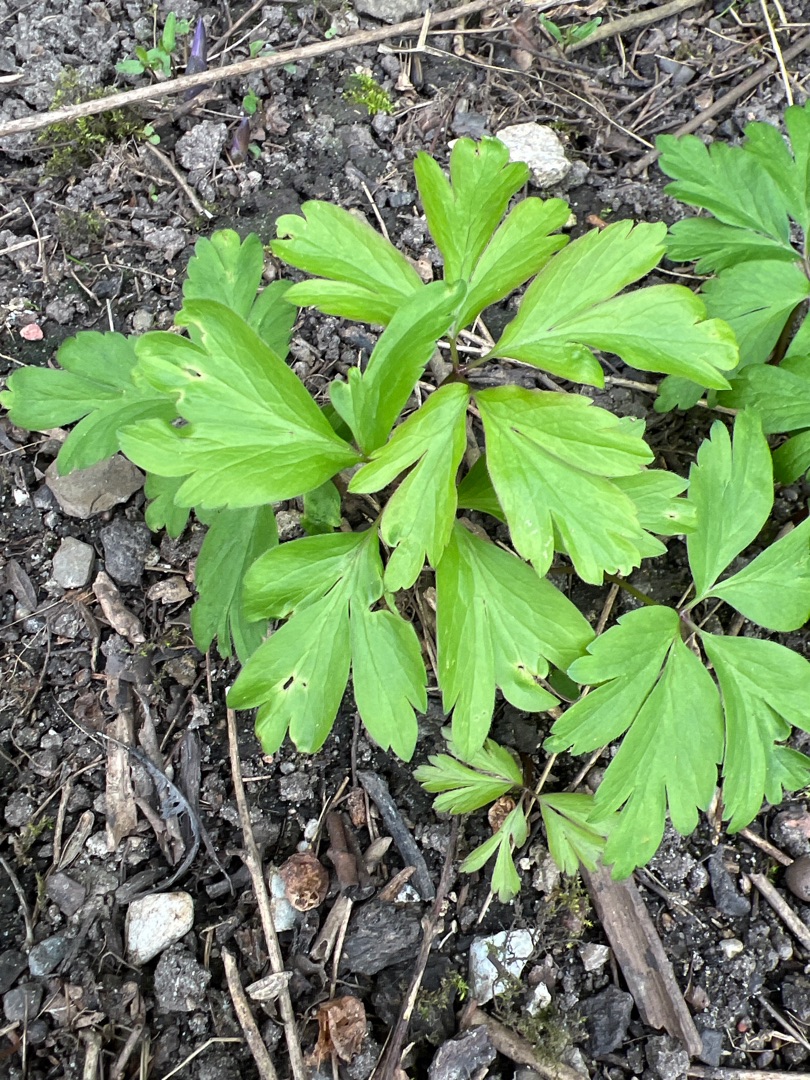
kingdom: Plantae
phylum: Tracheophyta
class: Magnoliopsida
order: Ranunculales
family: Ranunculaceae
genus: Anemone
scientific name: Anemone nemorosa
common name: Hvid anemone
